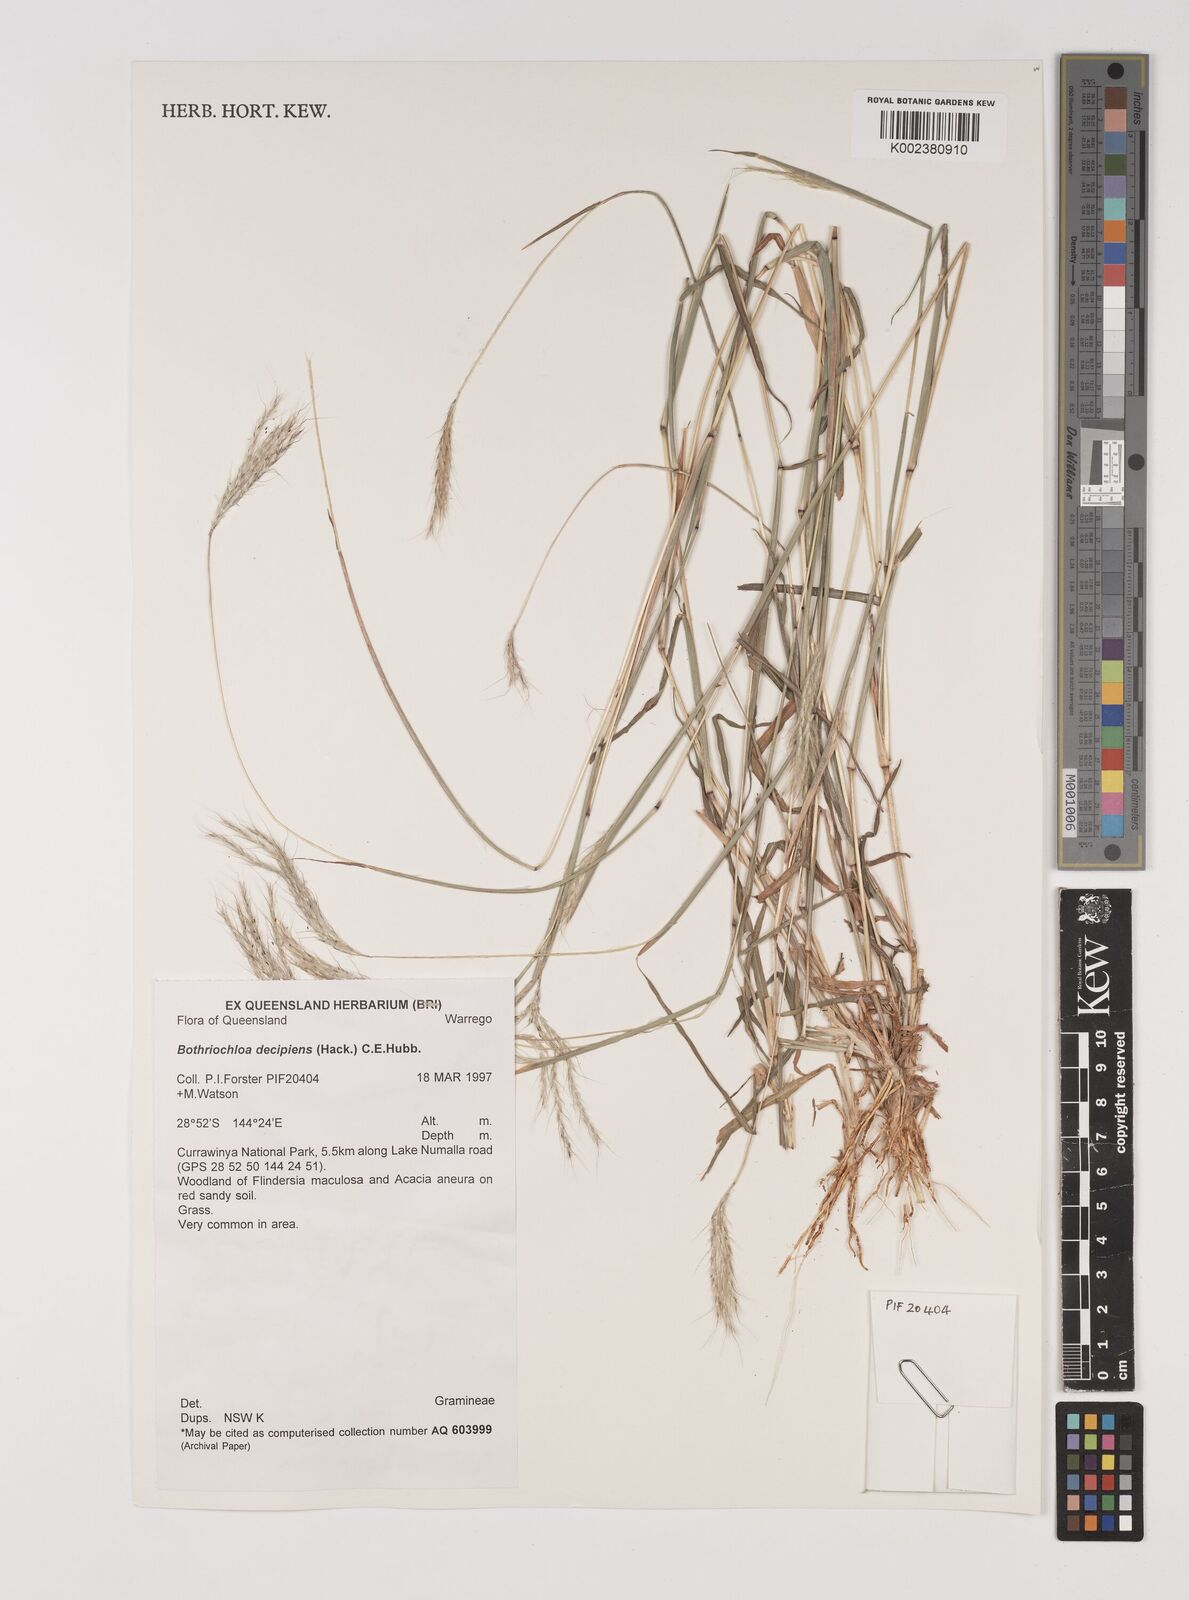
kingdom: Plantae
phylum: Tracheophyta
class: Liliopsida
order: Poales
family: Poaceae
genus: Bothriochloa
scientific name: Bothriochloa decipiens
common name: Pitted-bluegrass
